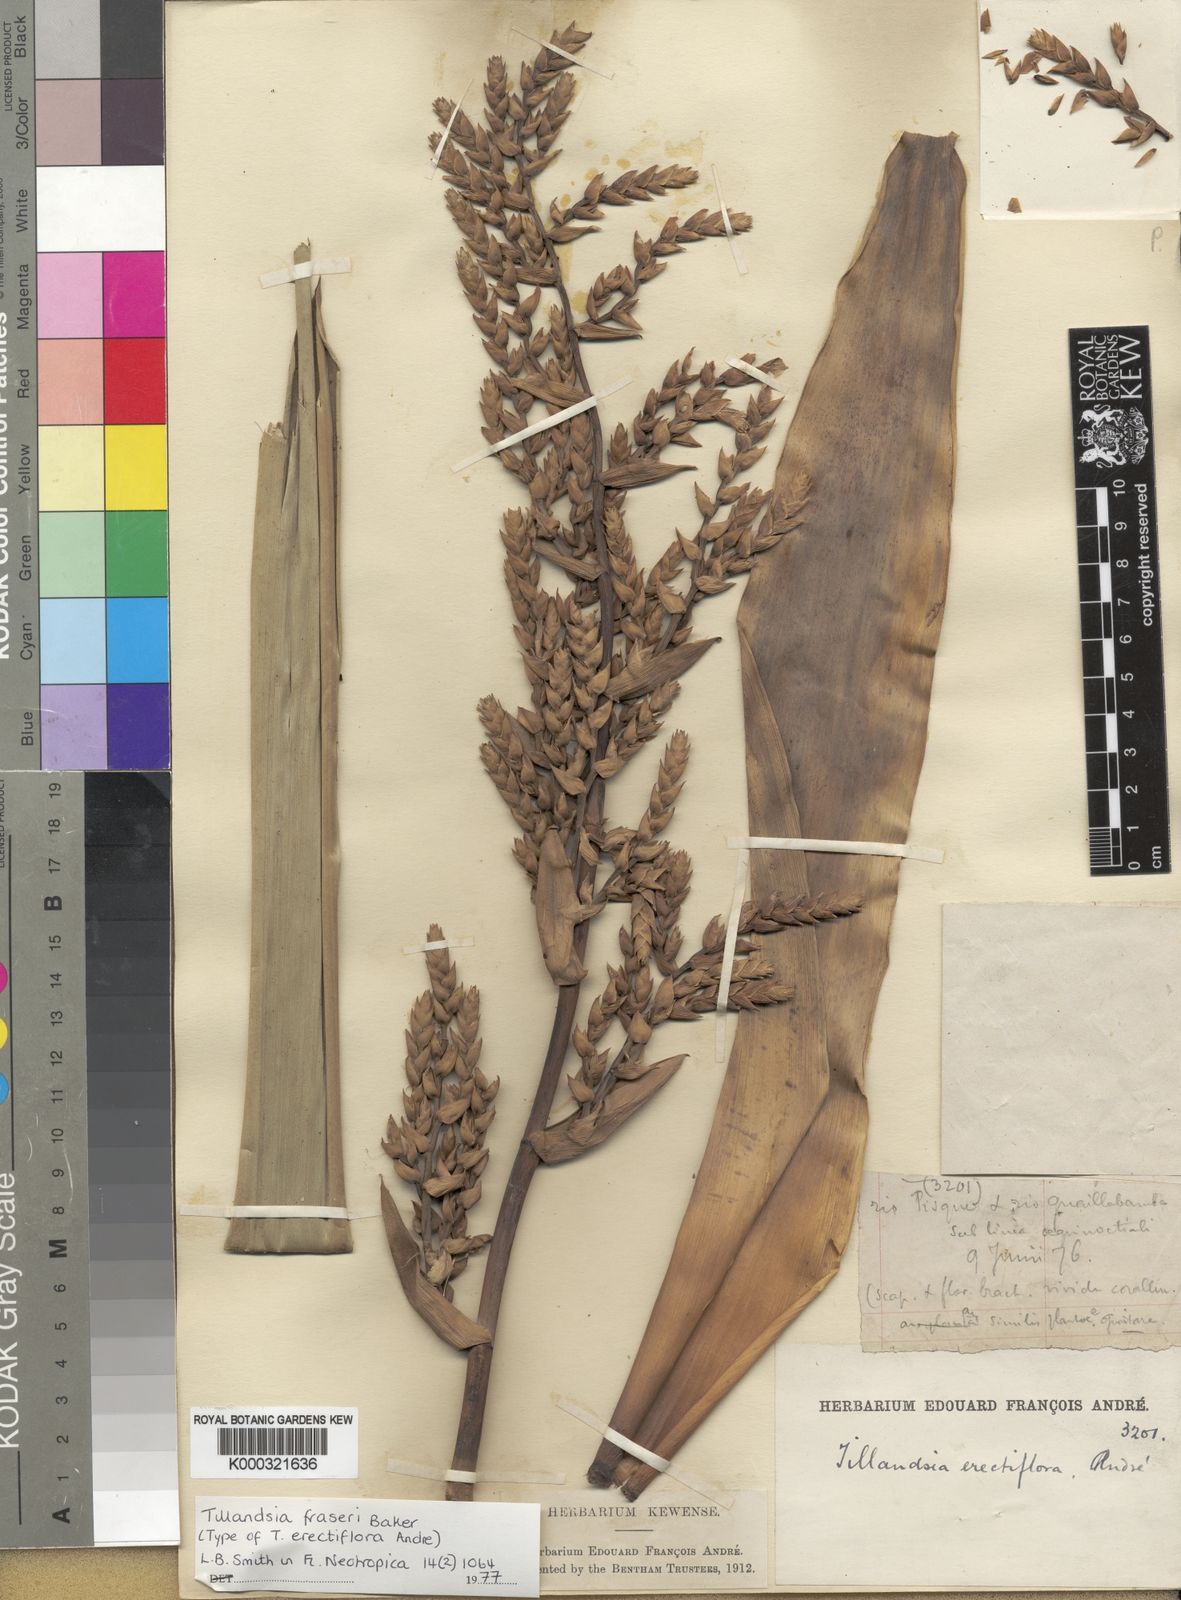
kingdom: Plantae
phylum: Tracheophyta
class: Liliopsida
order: Poales
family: Bromeliaceae
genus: Racinaea
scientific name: Racinaea fraseri
